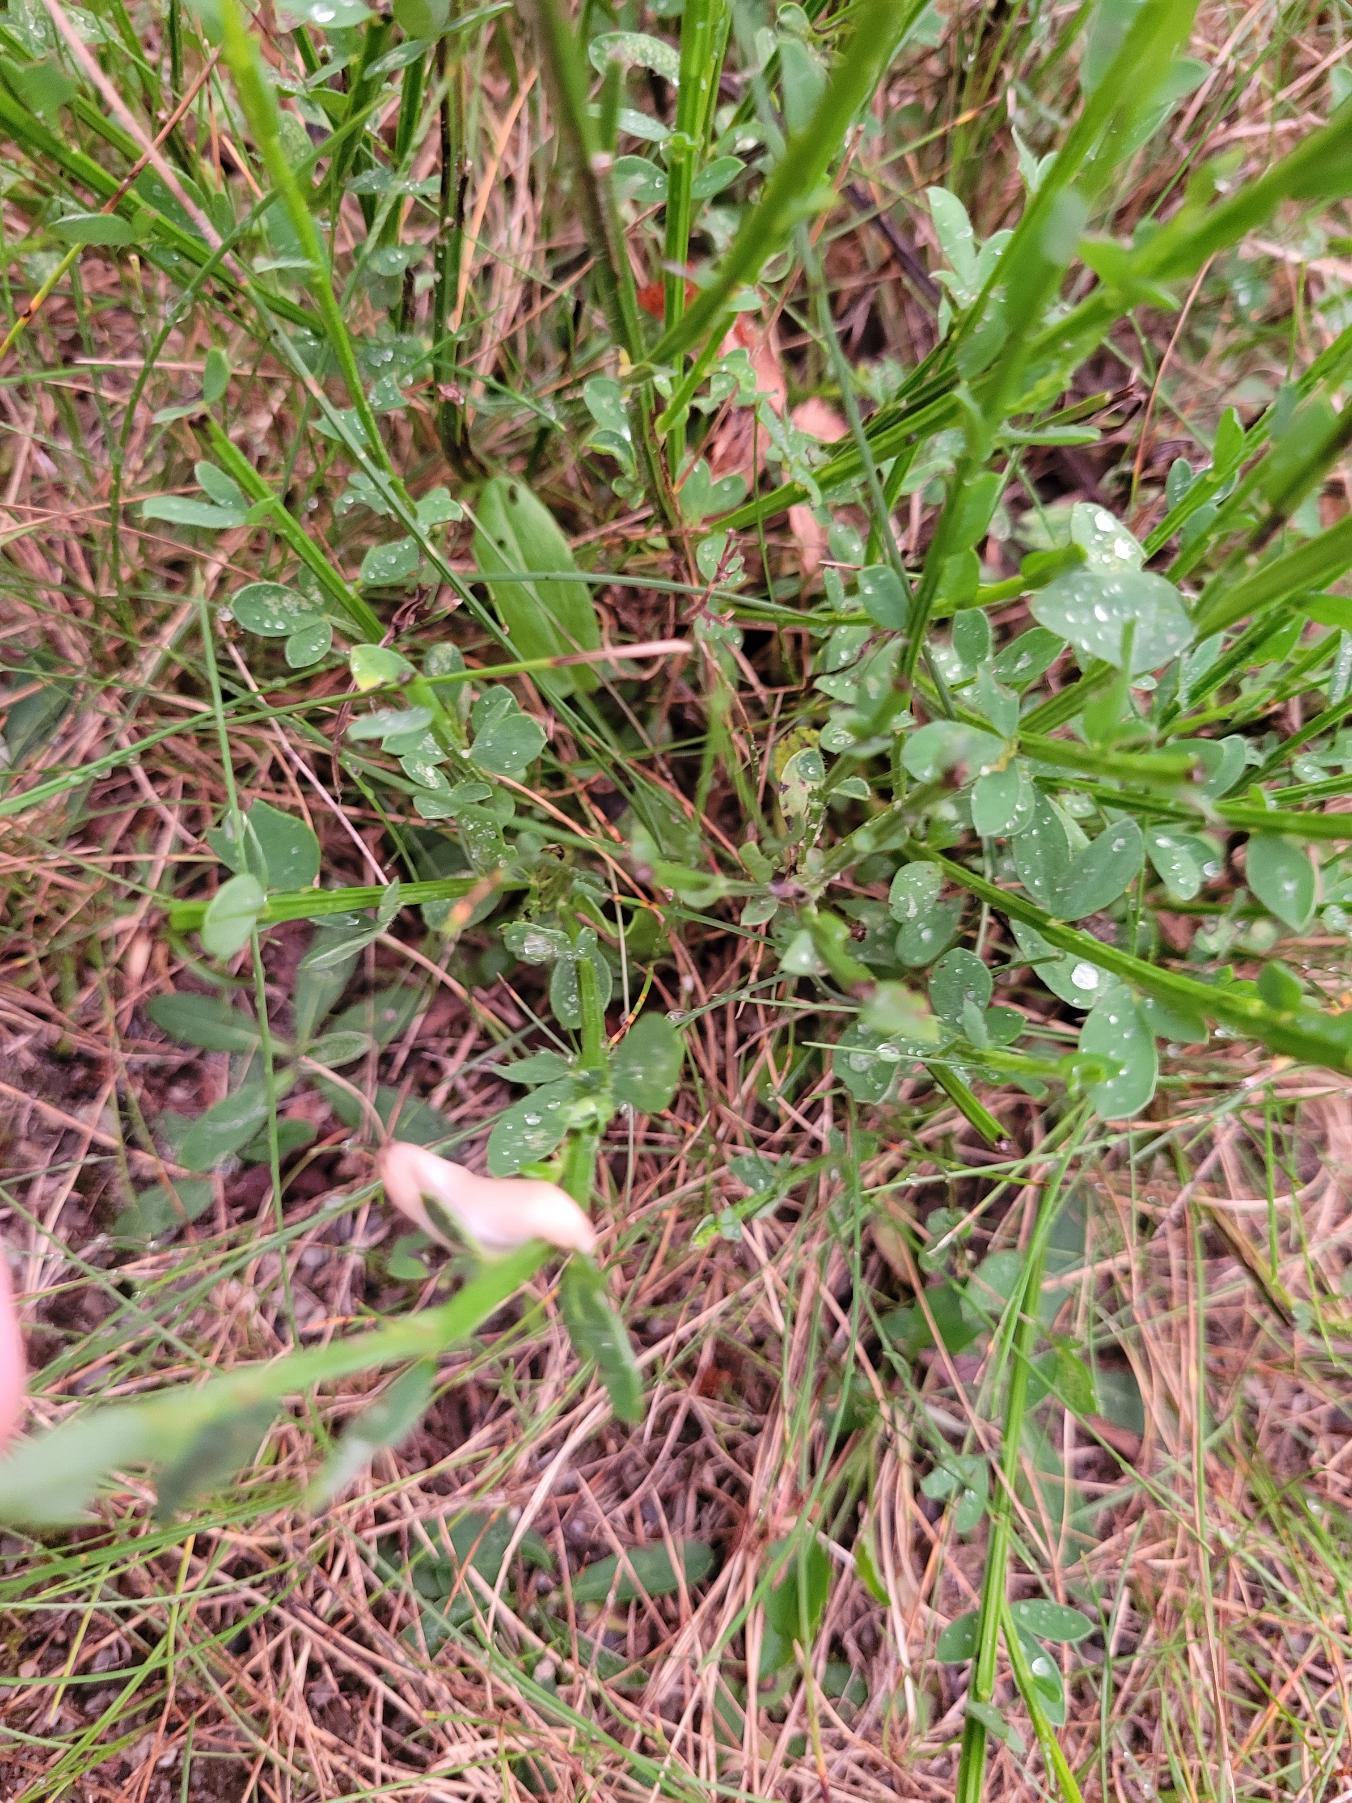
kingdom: Plantae
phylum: Tracheophyta
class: Magnoliopsida
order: Fabales
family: Fabaceae
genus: Cytisus
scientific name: Cytisus scoparius
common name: Almindelig gyvel
